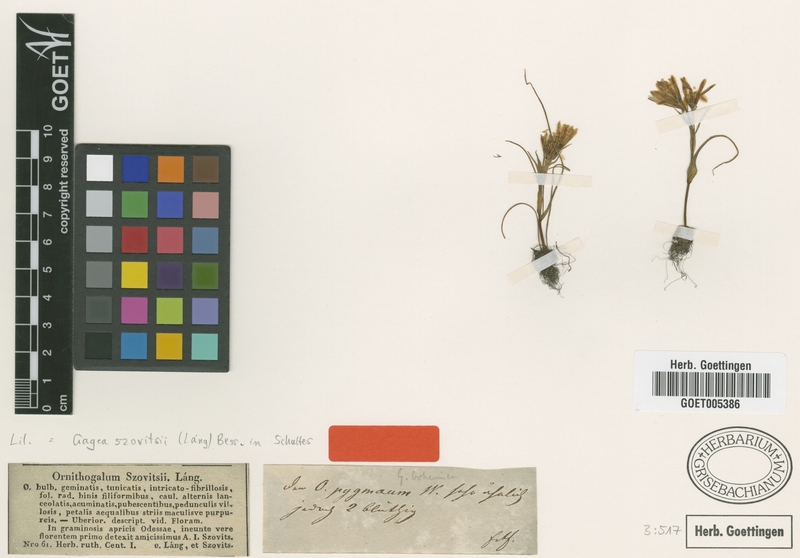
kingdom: Plantae
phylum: Tracheophyta
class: Liliopsida
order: Liliales
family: Liliaceae
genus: Gagea
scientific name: Gagea bohemica
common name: Early star-of-bethlehem
